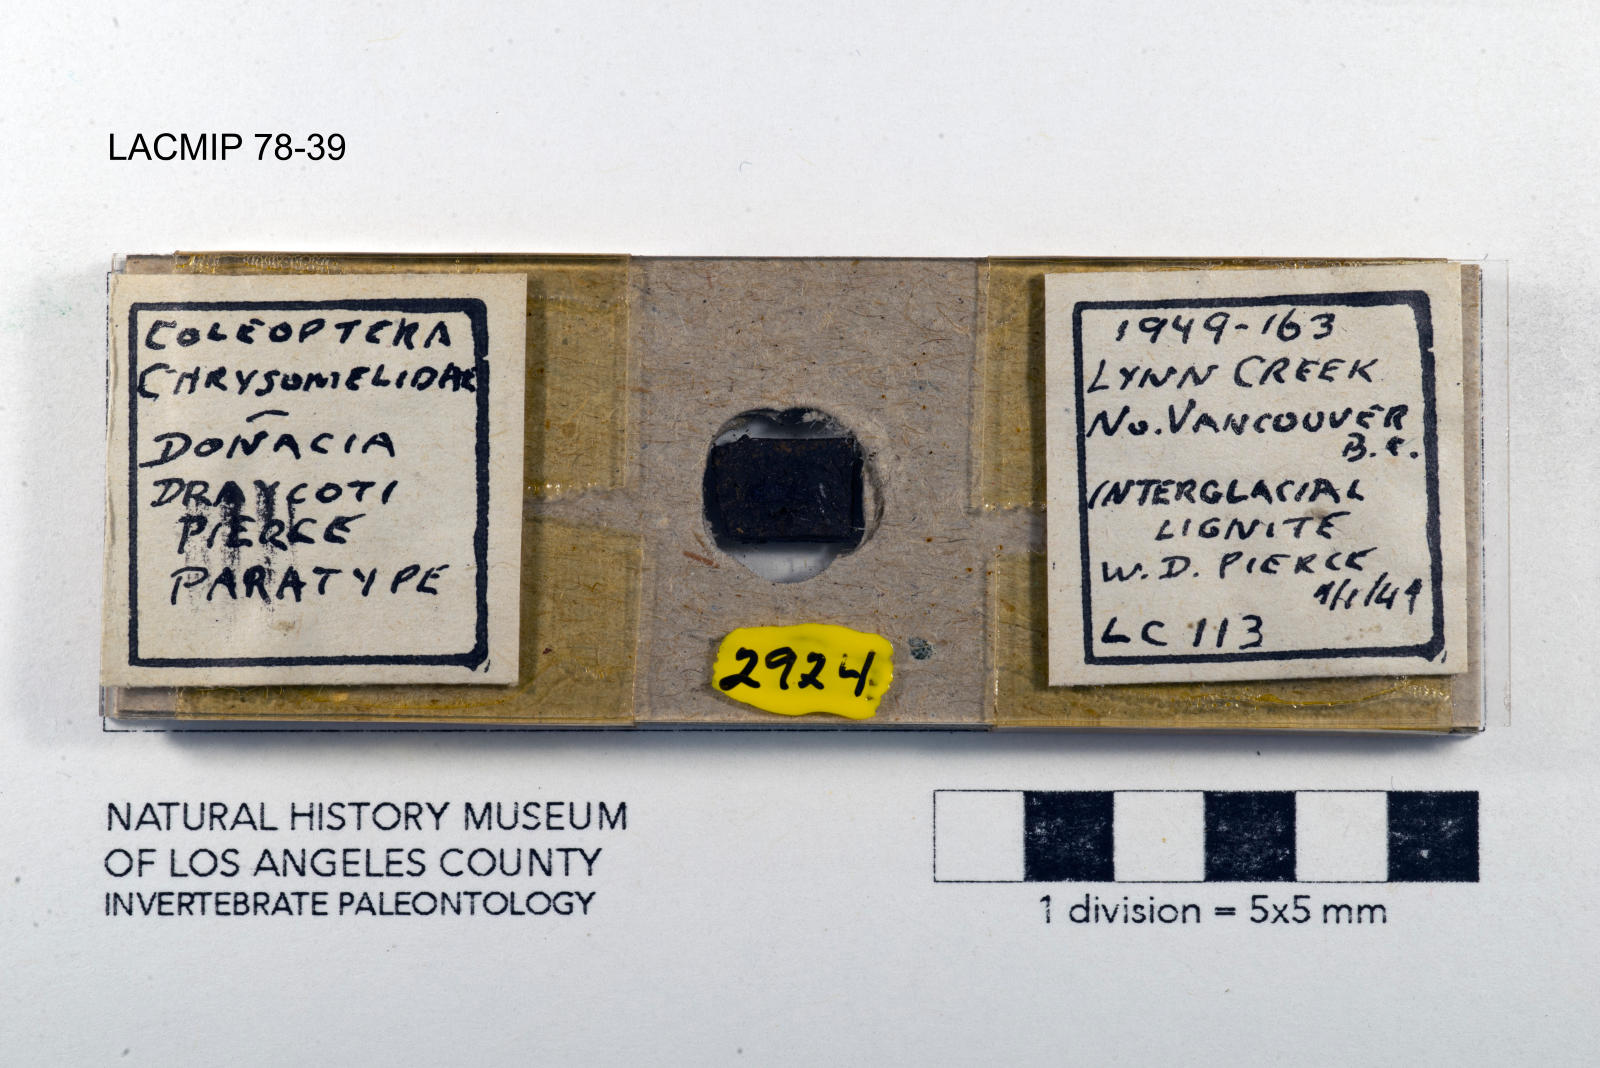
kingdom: Animalia
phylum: Arthropoda
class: Insecta
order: Coleoptera
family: Chrysomelidae
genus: Donacia
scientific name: Donacia draycoti
